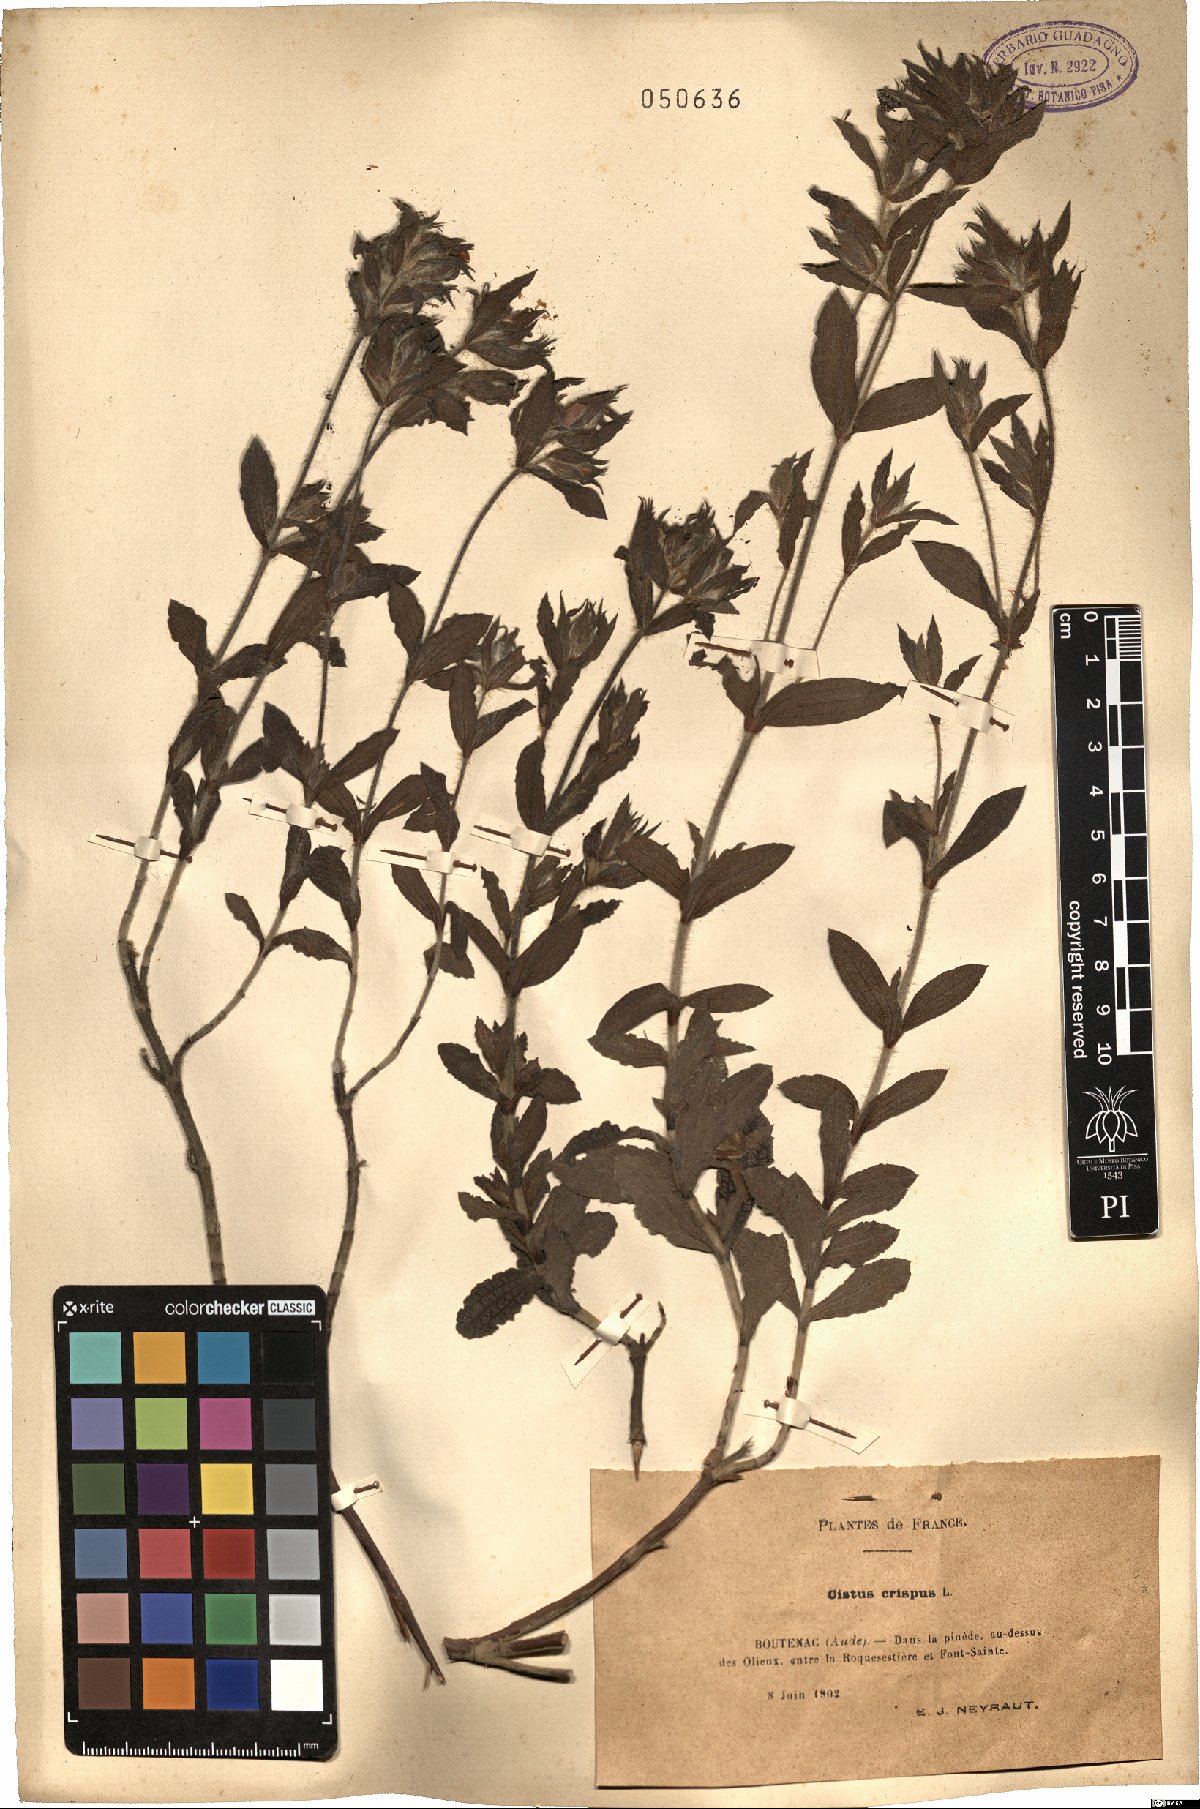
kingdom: Plantae
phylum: Tracheophyta
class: Magnoliopsida
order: Malvales
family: Cistaceae
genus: Cistus
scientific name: Cistus crispus
